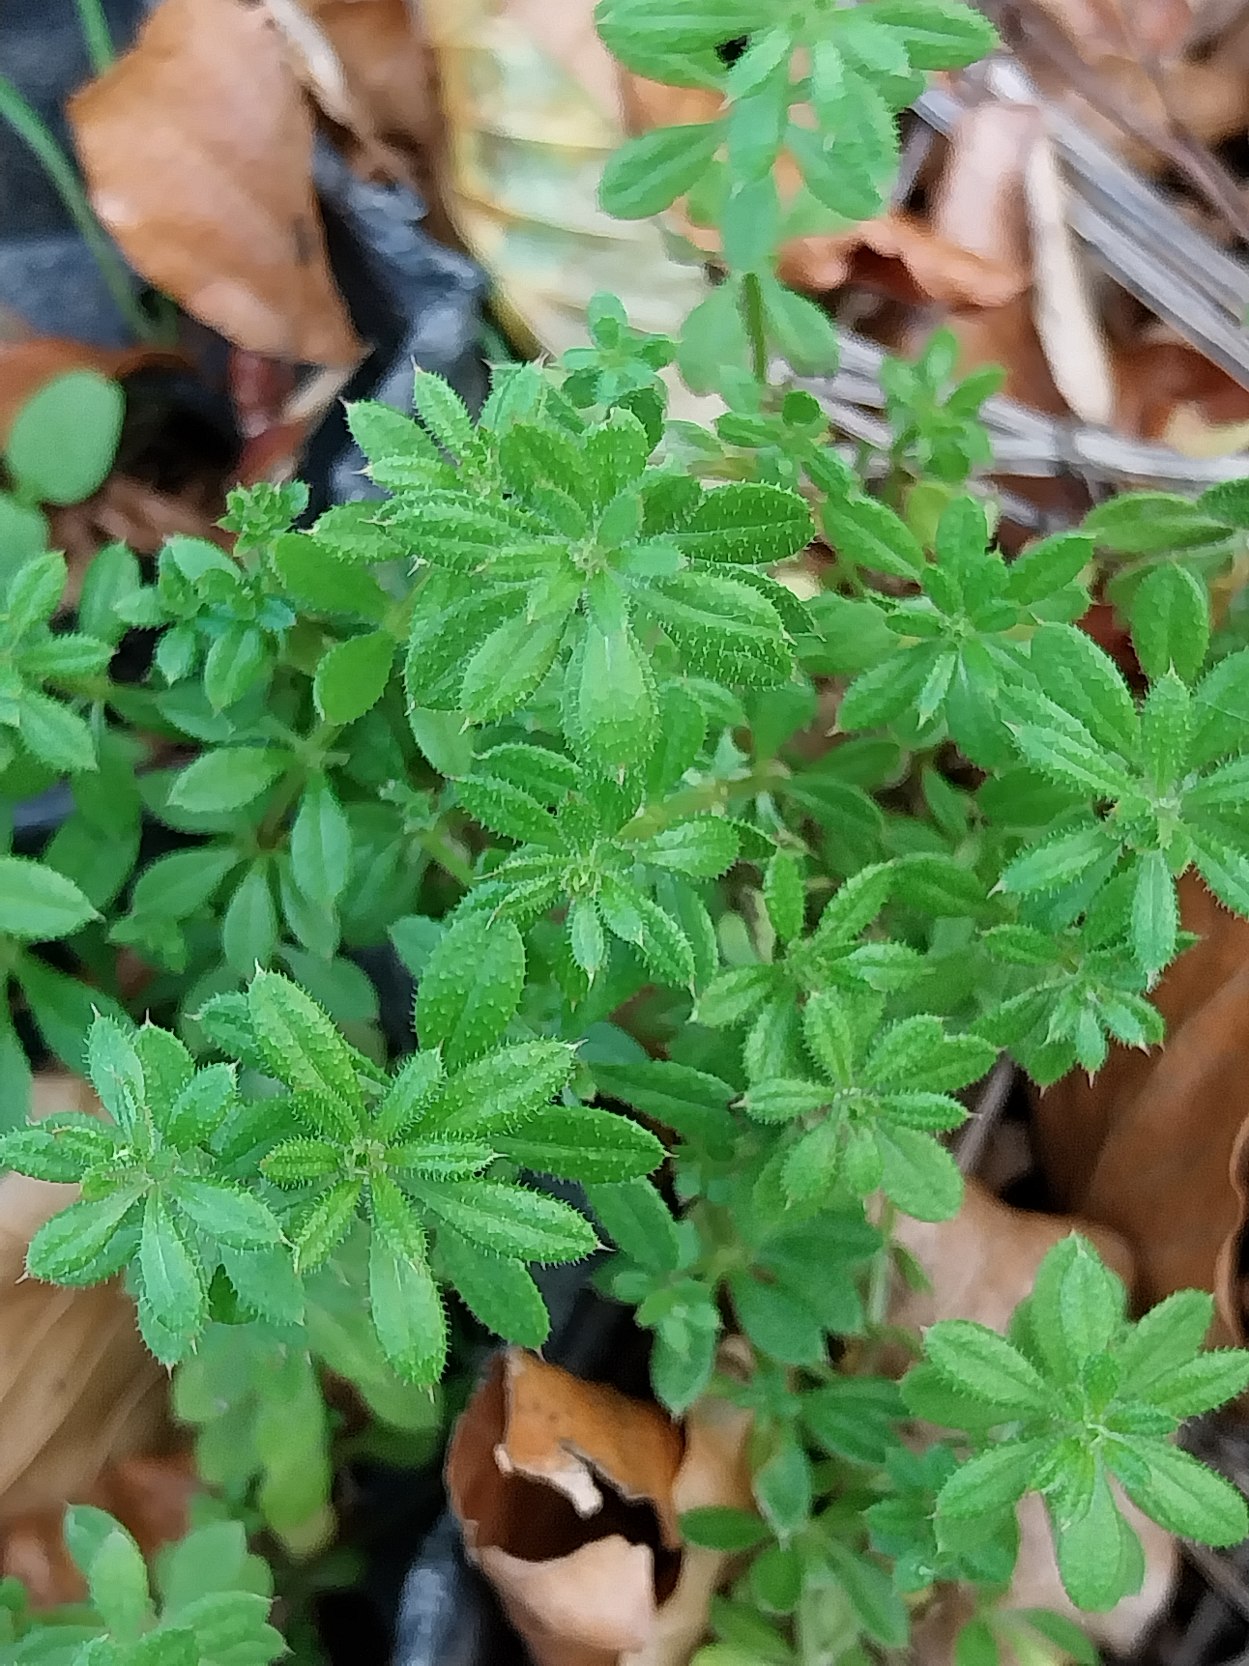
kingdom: Plantae
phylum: Tracheophyta
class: Magnoliopsida
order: Gentianales
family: Rubiaceae
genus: Galium
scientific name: Galium aparine
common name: Burre-snerre
